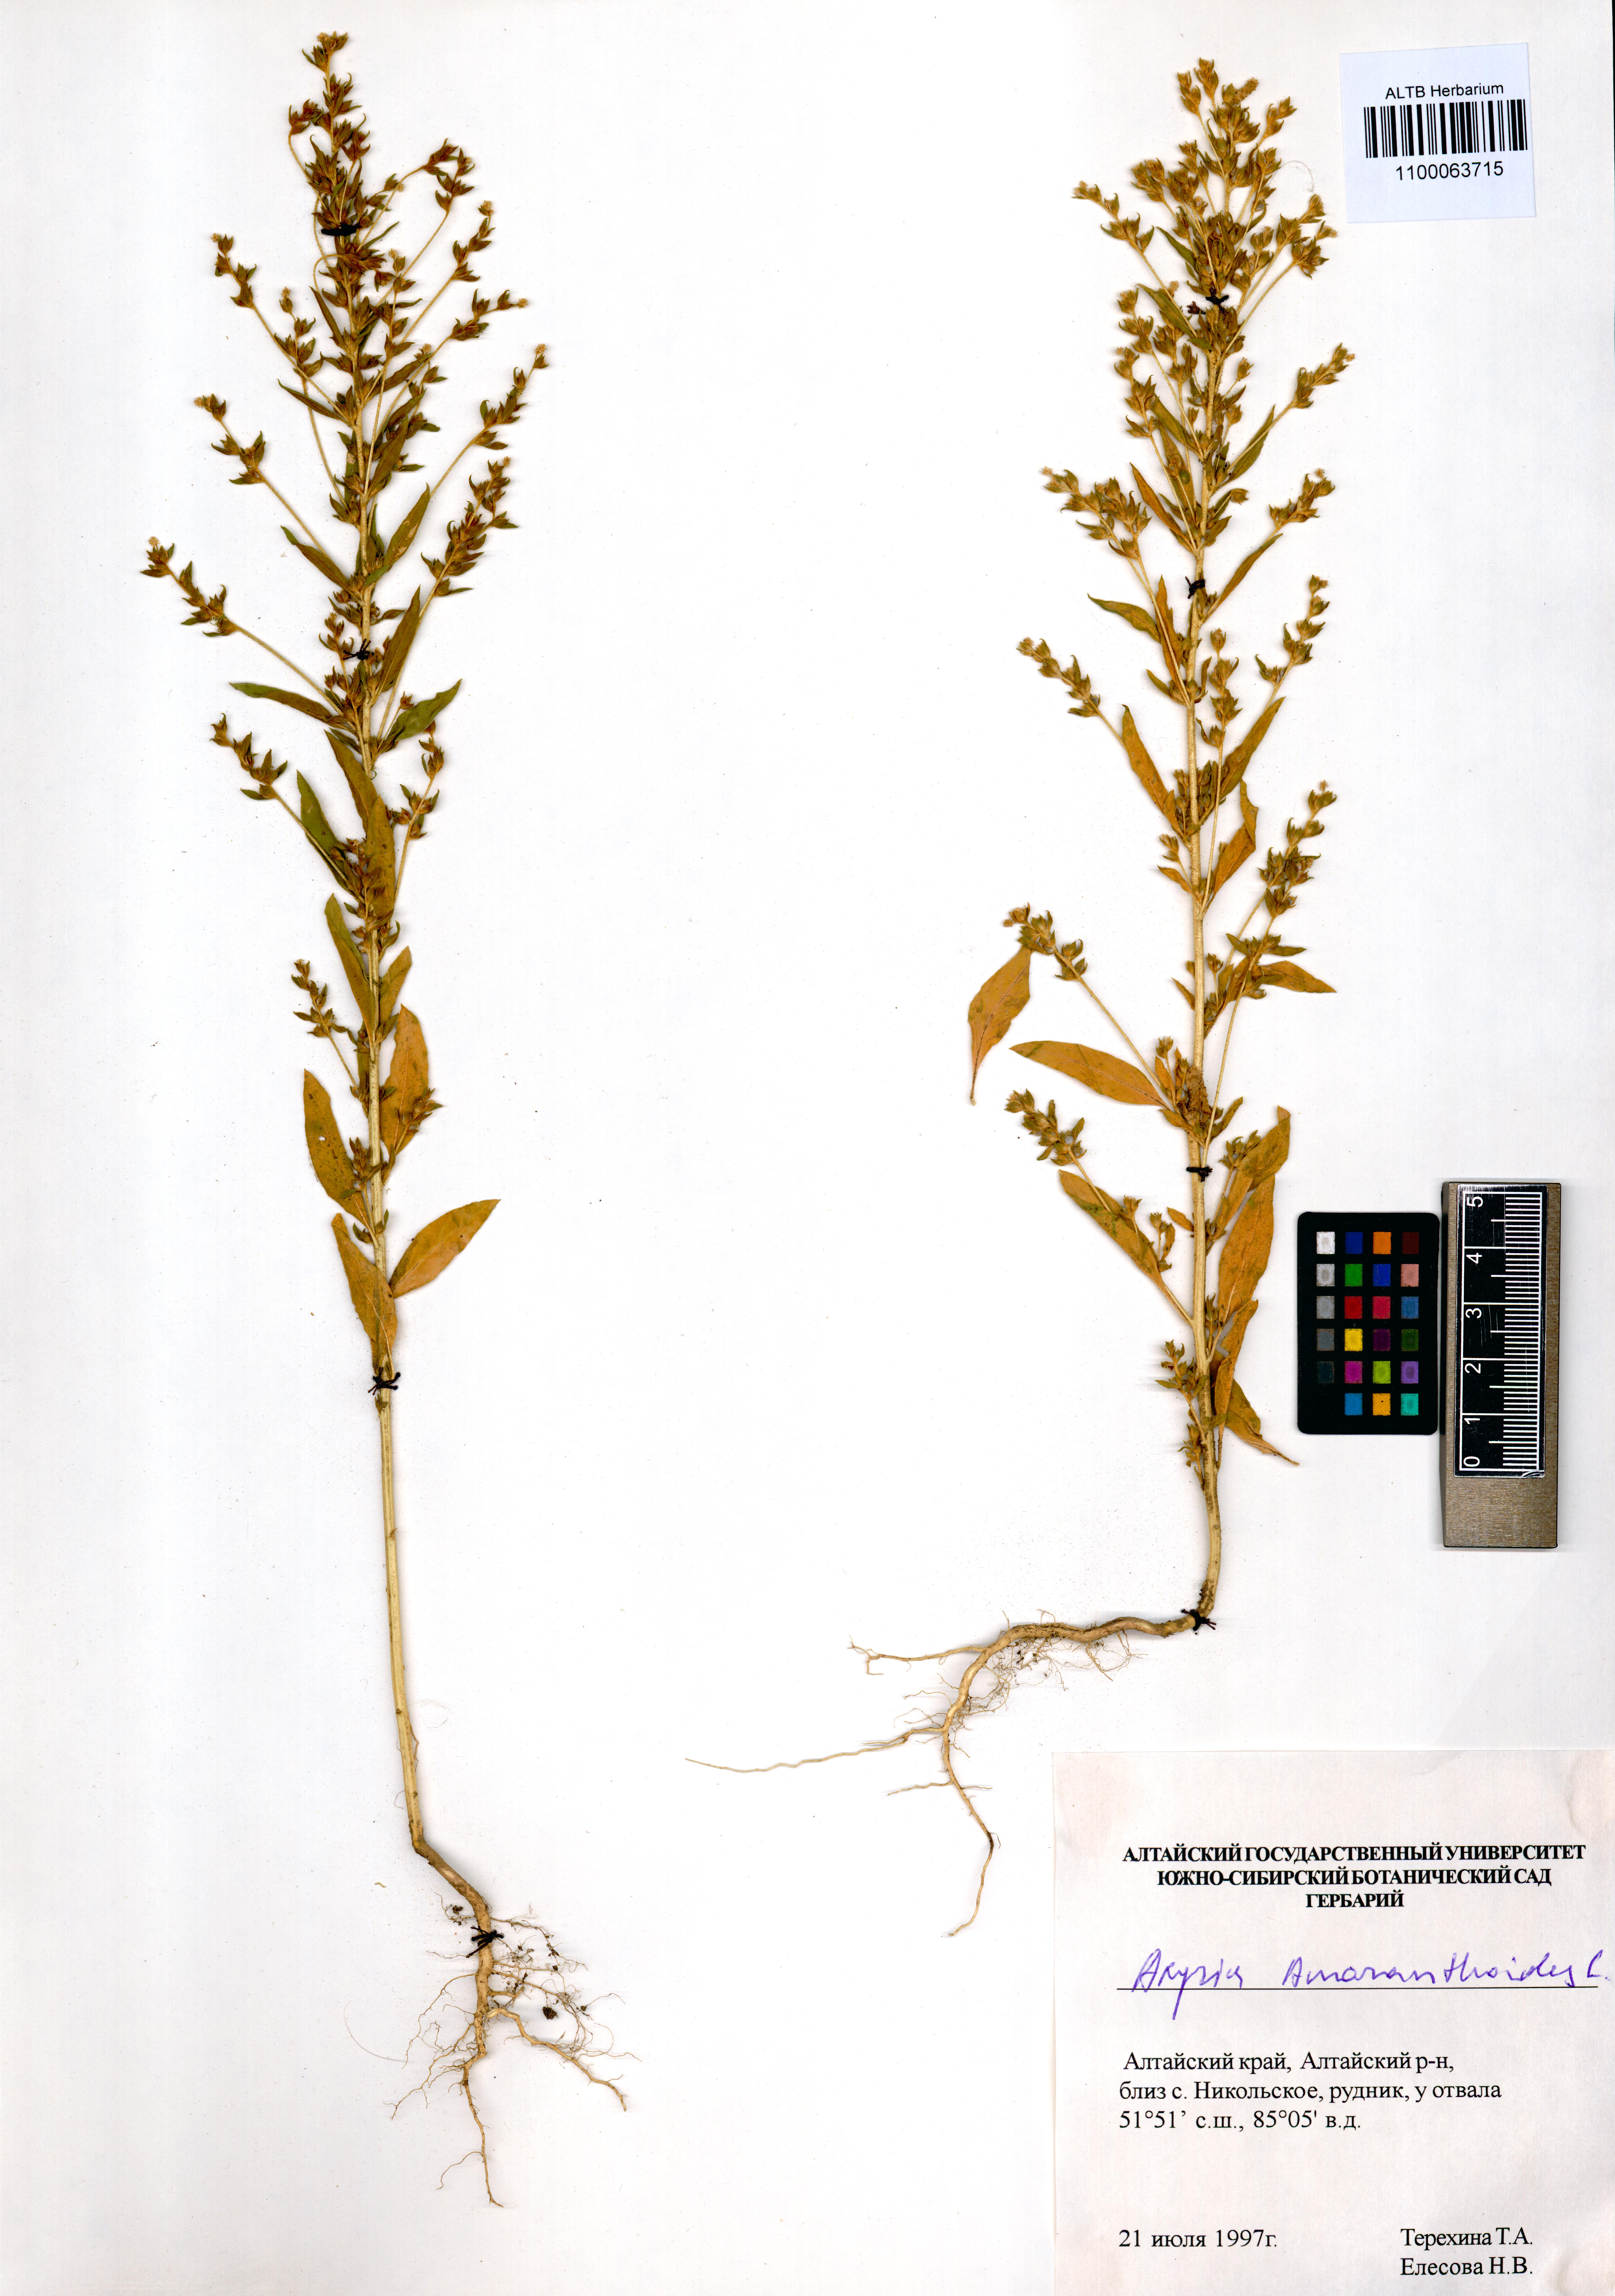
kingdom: Plantae
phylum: Tracheophyta
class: Magnoliopsida
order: Caryophyllales
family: Amaranthaceae
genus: Axyris
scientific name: Axyris amaranthoides
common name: Russian pigweed
